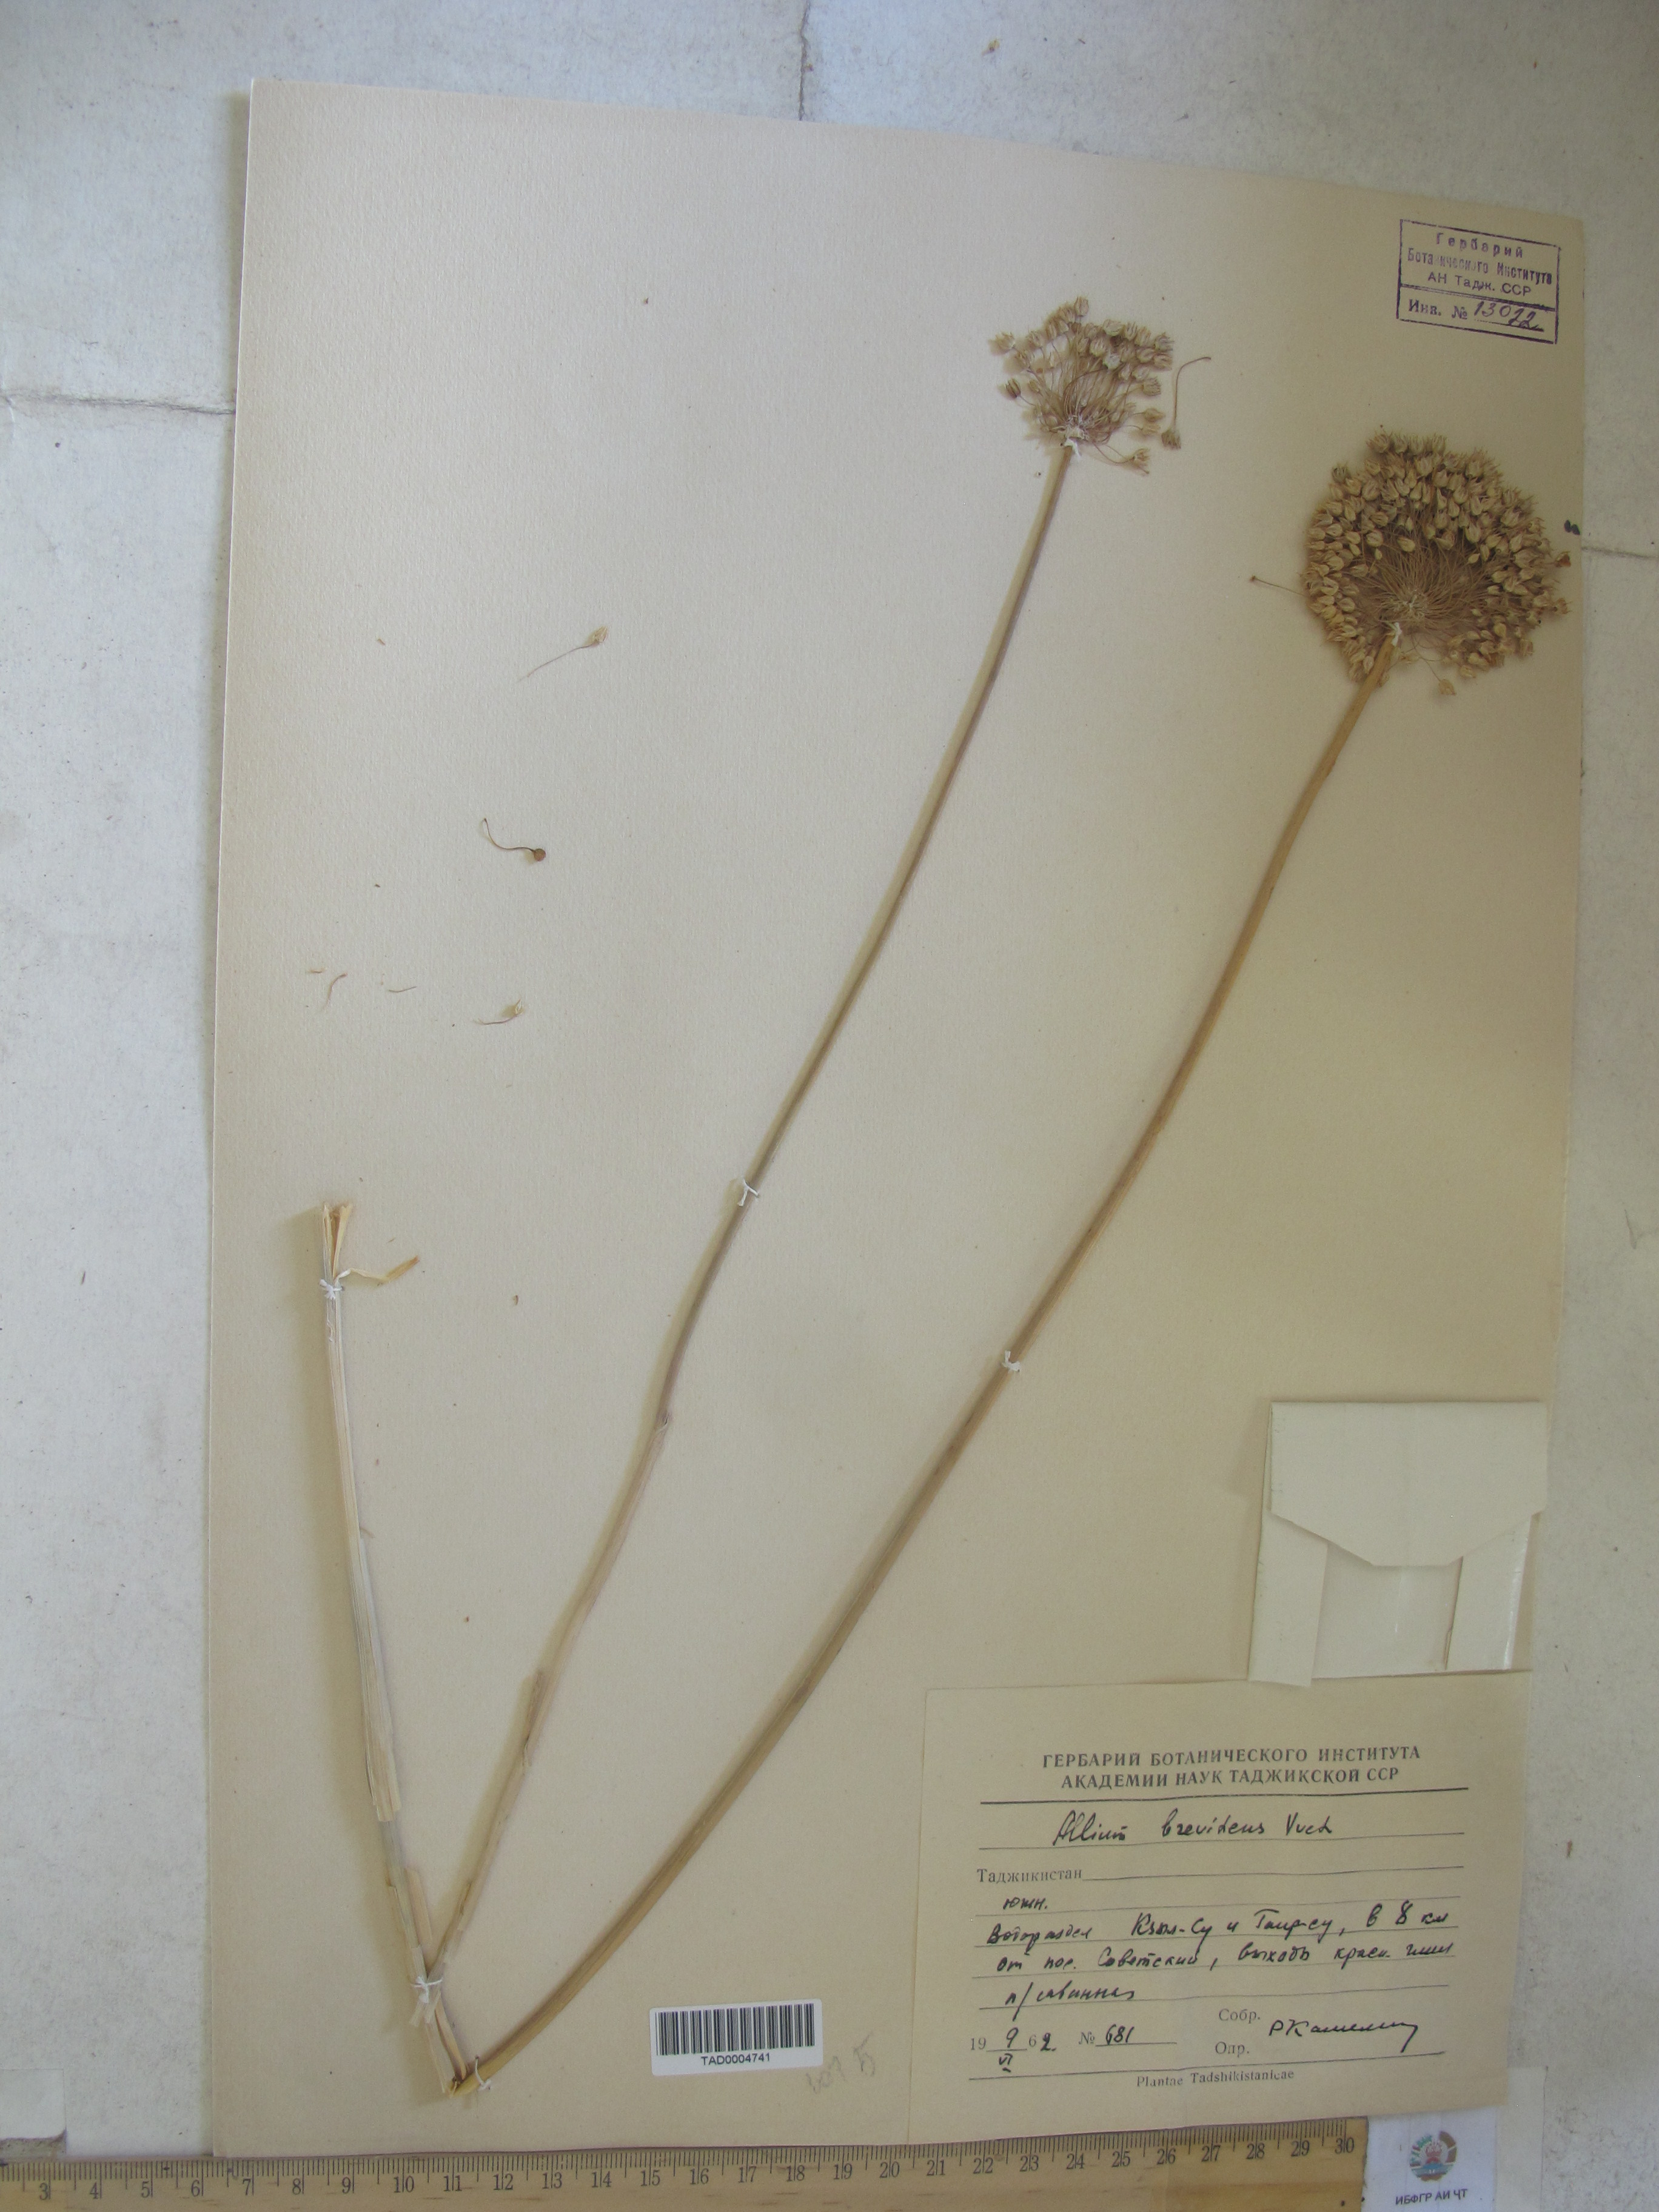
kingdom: Plantae
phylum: Tracheophyta
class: Liliopsida
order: Asparagales
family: Amaryllidaceae
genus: Allium
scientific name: Allium brevidens
